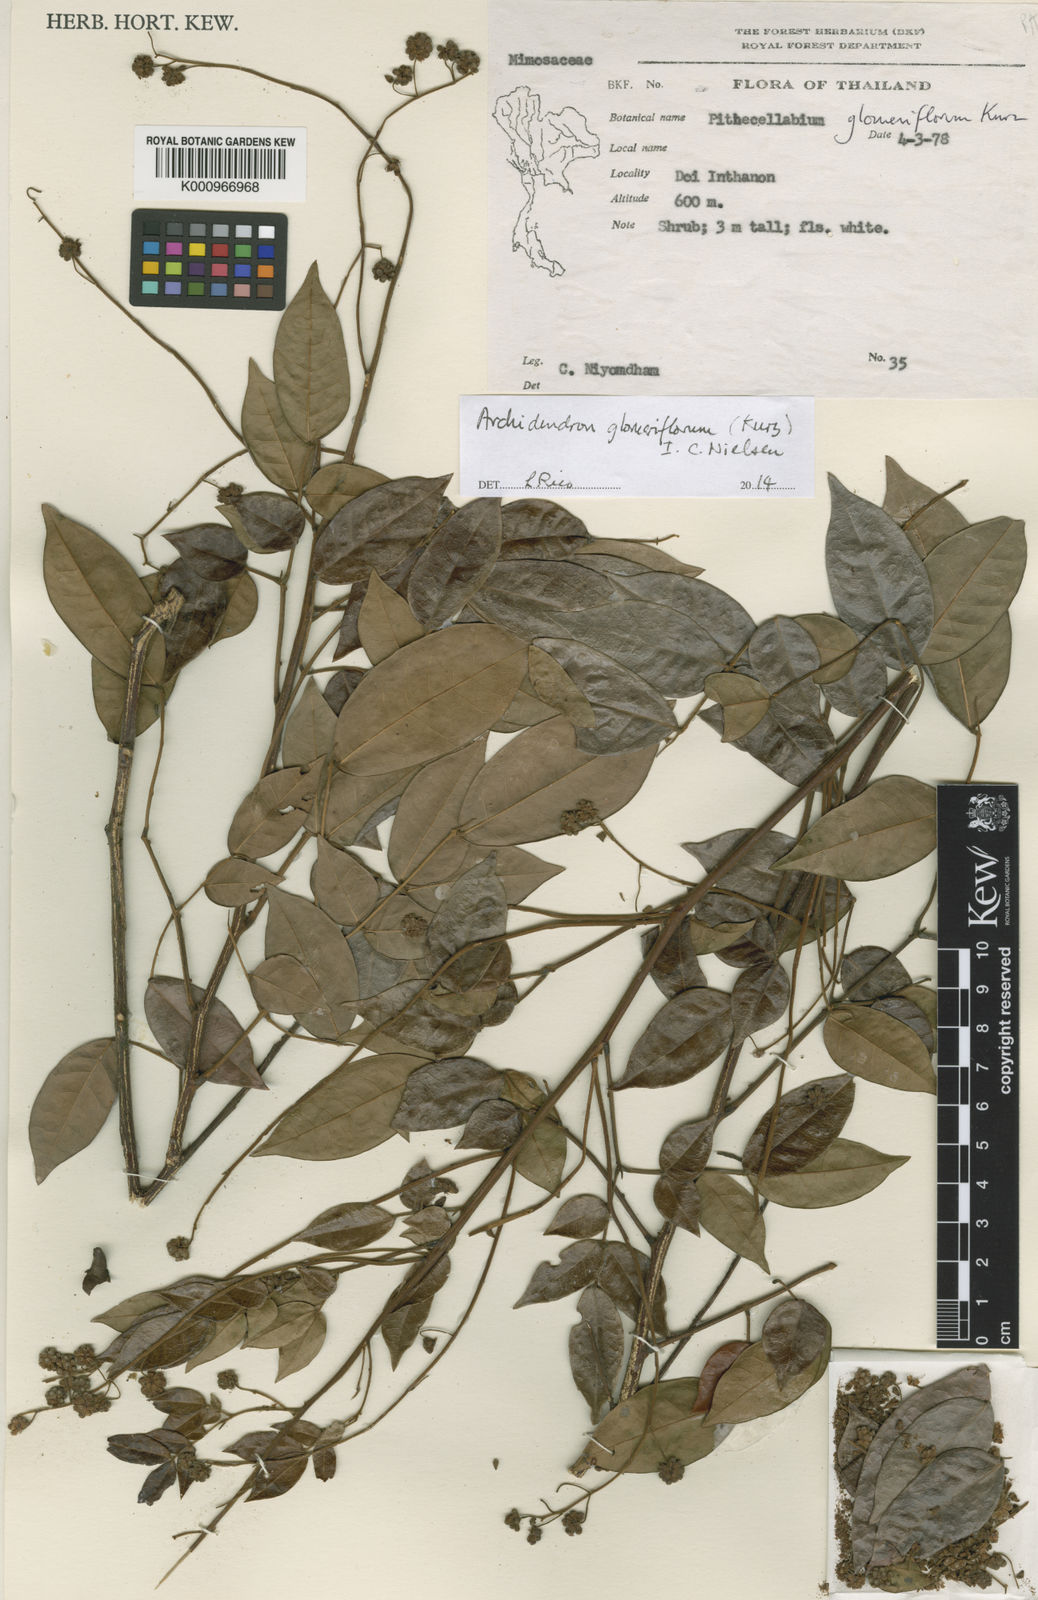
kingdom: Plantae
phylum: Tracheophyta
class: Magnoliopsida
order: Fabales
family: Fabaceae
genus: Archidendron
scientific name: Archidendron glomeriflorum
